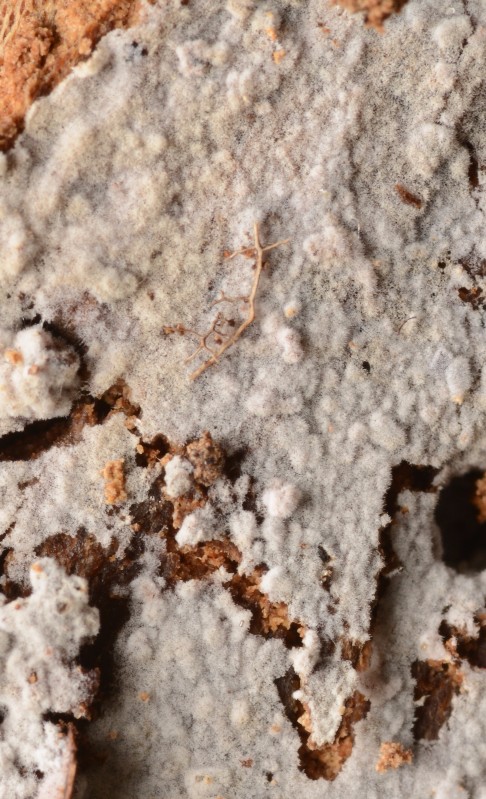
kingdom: Fungi
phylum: Basidiomycota
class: Agaricomycetes
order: Trechisporales
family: Hydnodontaceae
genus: Subulicystidium
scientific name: Subulicystidium longisporum
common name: almindelig pigtrådshinde
